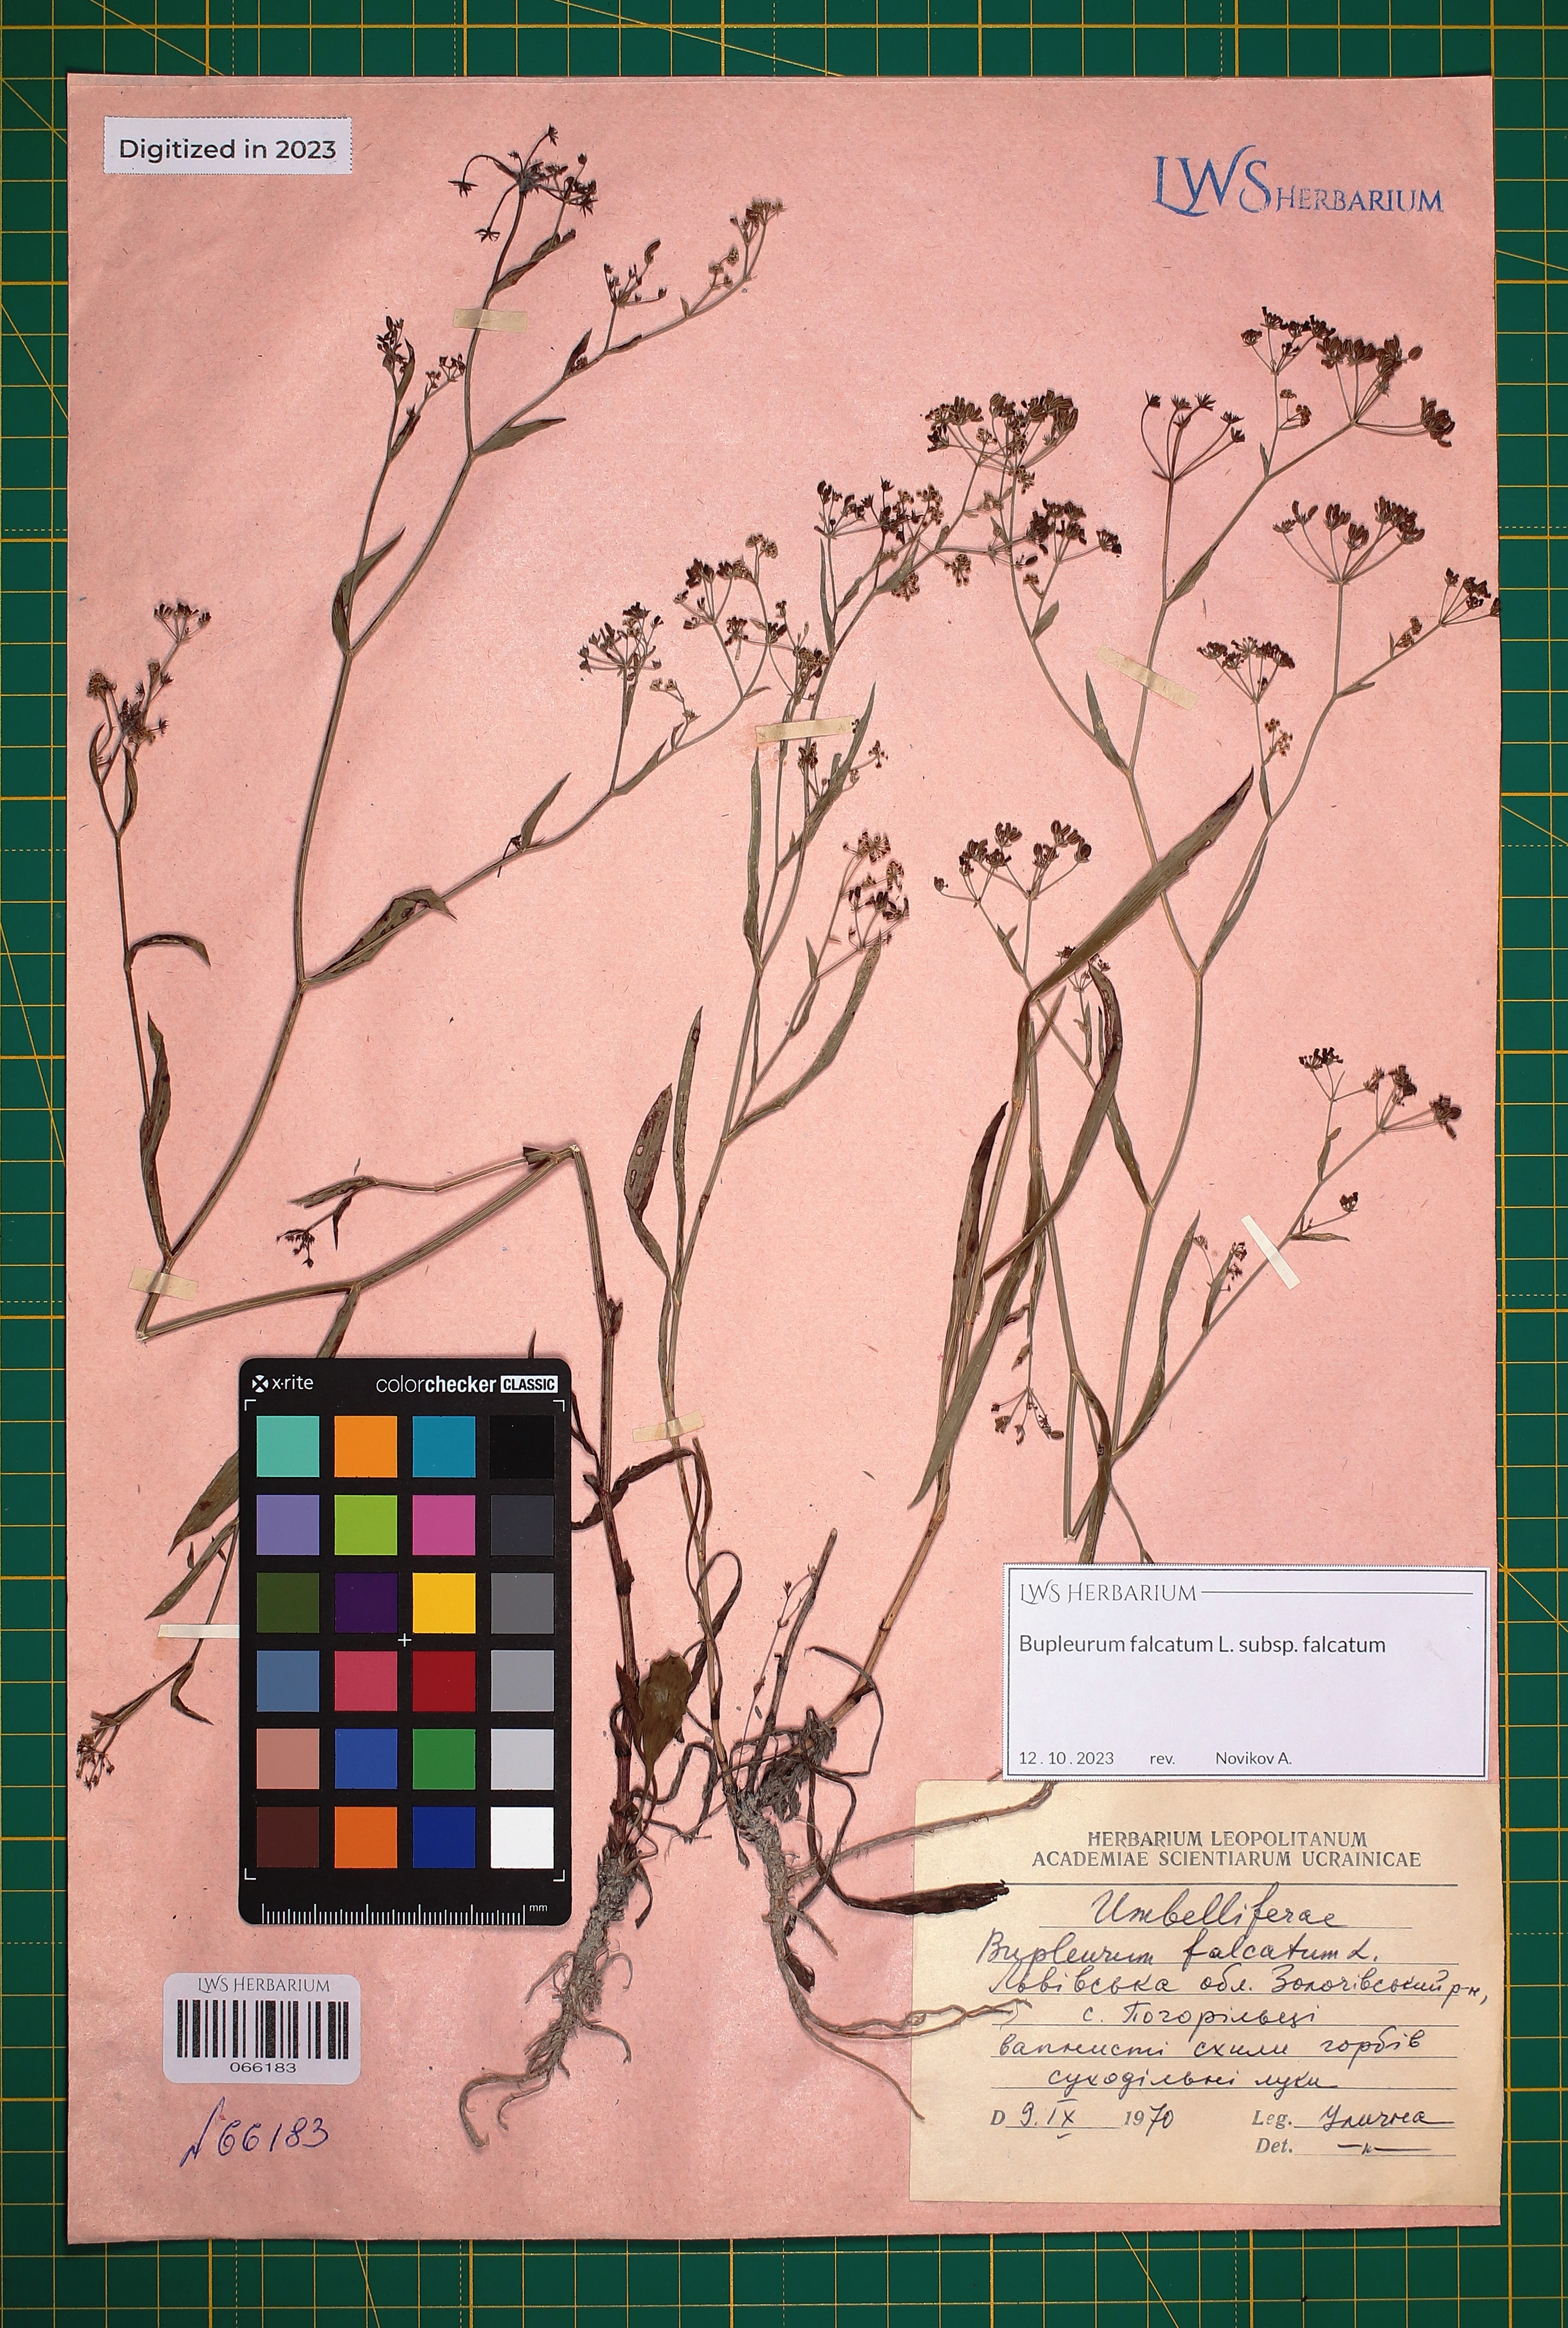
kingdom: Plantae
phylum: Tracheophyta
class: Magnoliopsida
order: Apiales
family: Apiaceae
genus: Bupleurum
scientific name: Bupleurum falcatum
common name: Sickle-leaved hare's-ear
